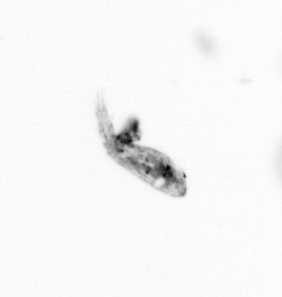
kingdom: Animalia
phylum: Arthropoda
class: Copepoda
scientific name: Copepoda
